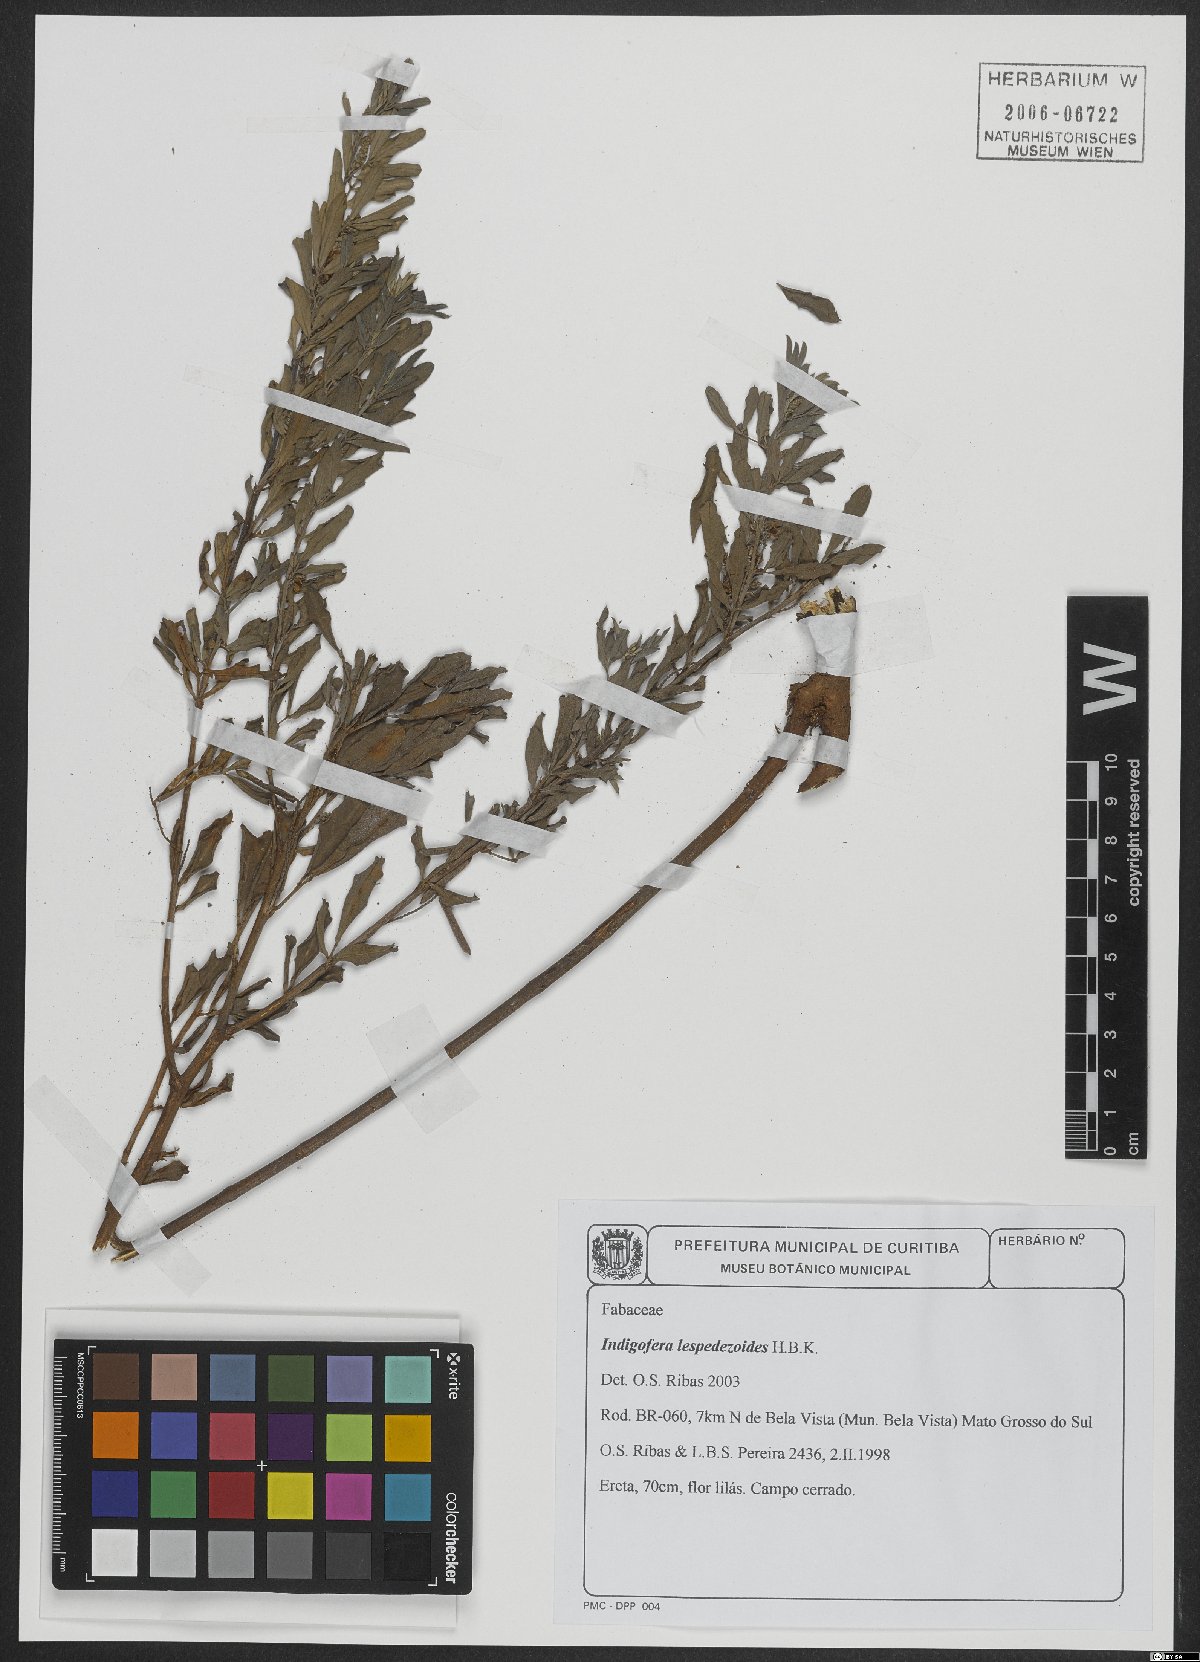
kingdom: Plantae
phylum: Tracheophyta
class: Magnoliopsida
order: Fabales
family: Fabaceae
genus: Indigofera
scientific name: Indigofera cassioides
